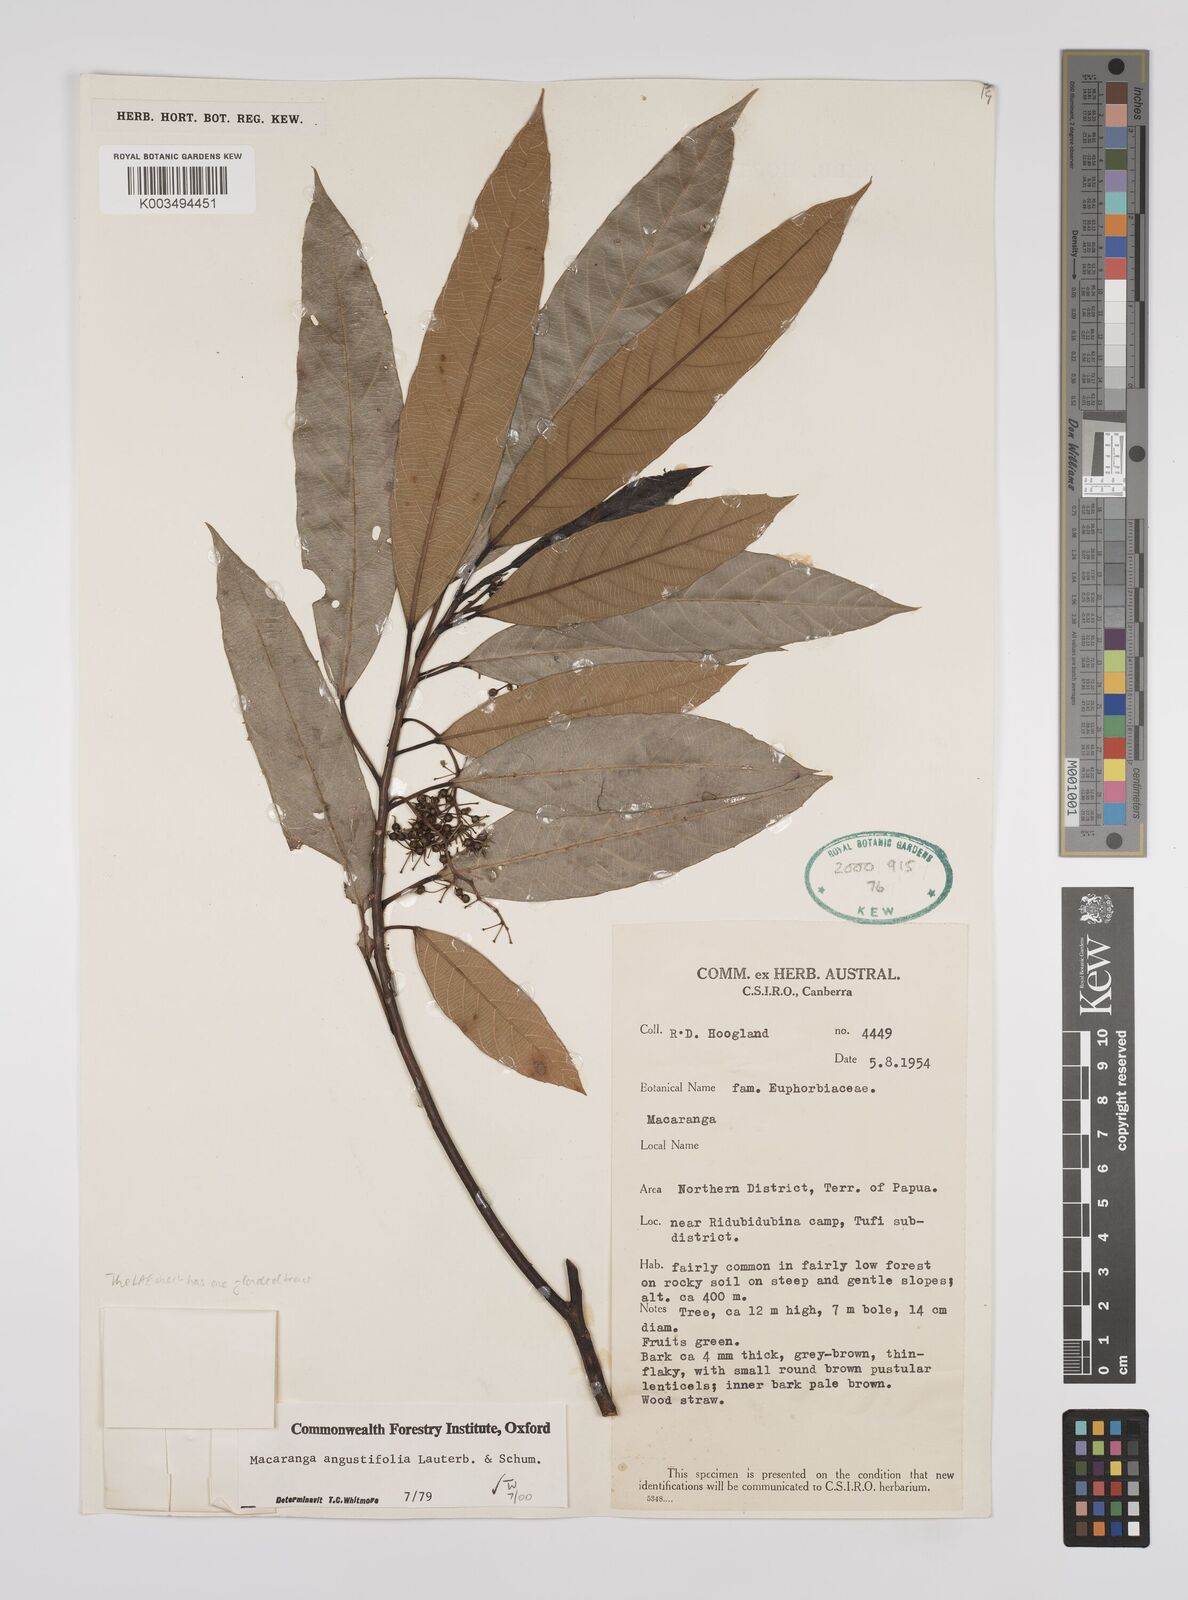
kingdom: Plantae
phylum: Tracheophyta
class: Magnoliopsida
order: Malpighiales
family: Euphorbiaceae
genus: Macaranga
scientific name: Macaranga angustifolia
